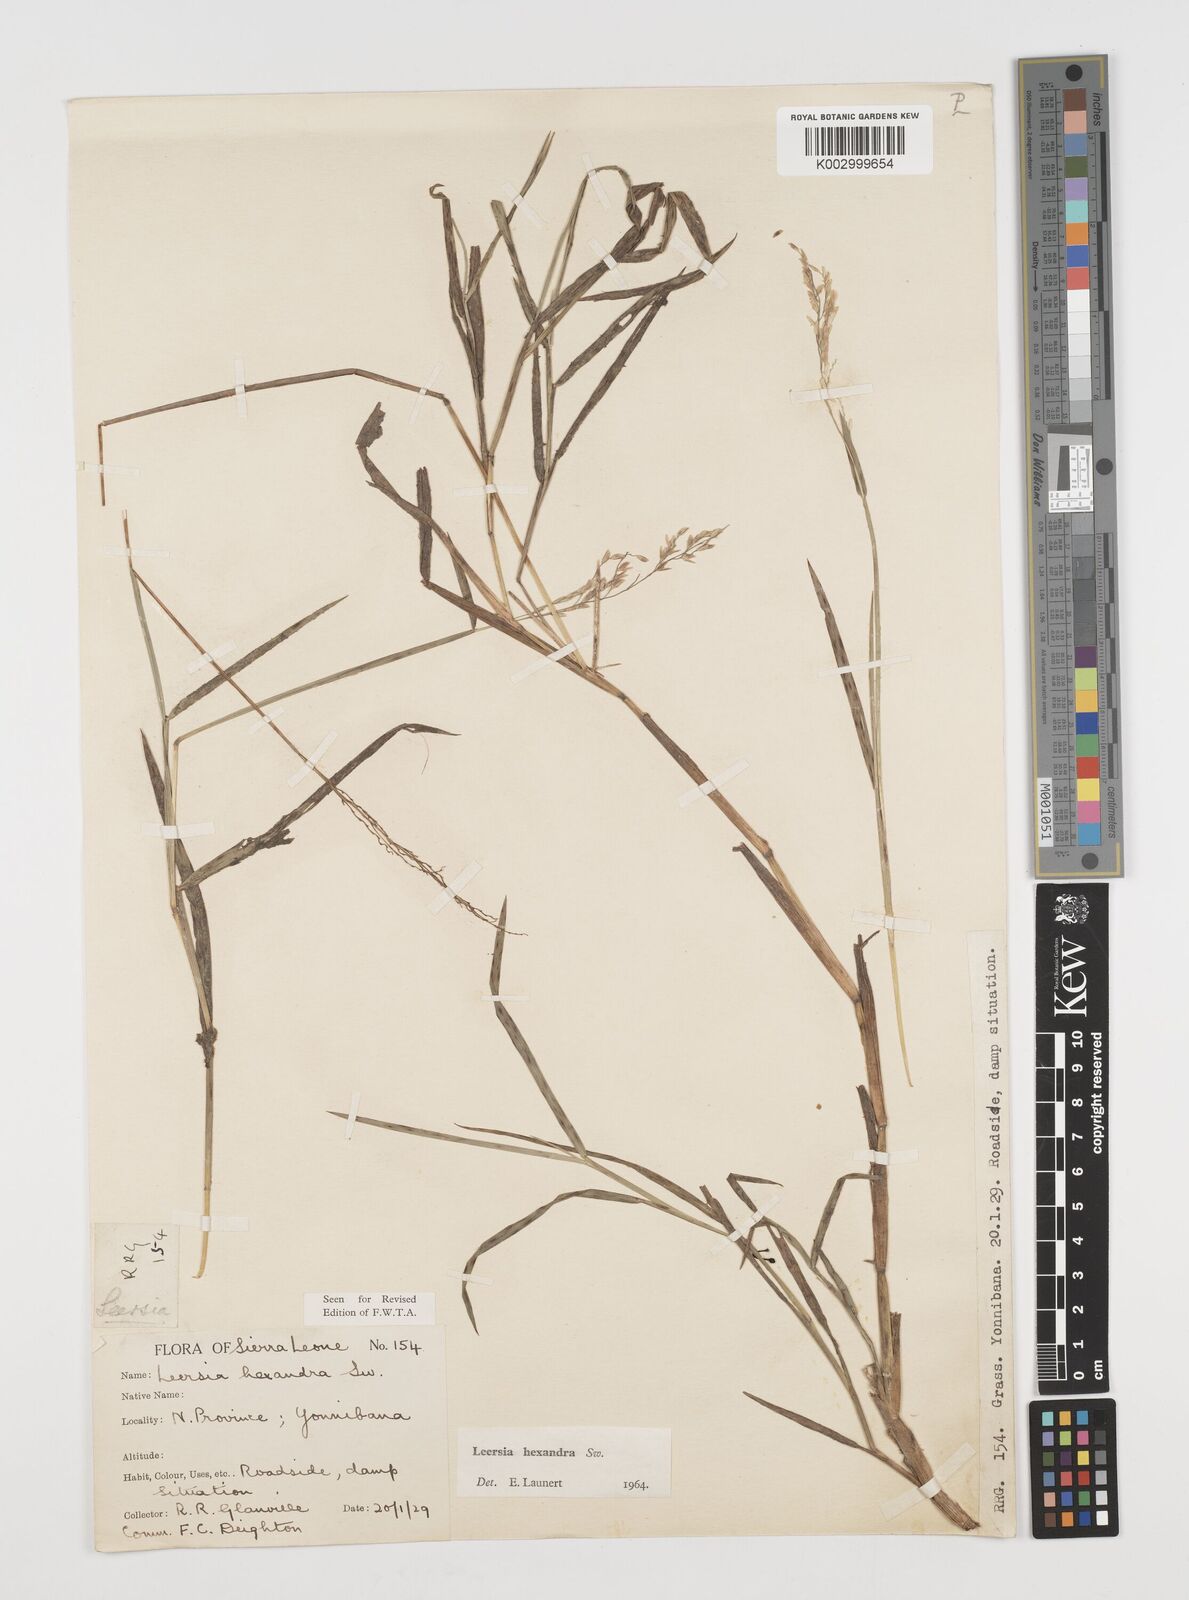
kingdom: Plantae
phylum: Tracheophyta
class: Liliopsida
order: Poales
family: Poaceae
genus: Leersia
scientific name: Leersia hexandra
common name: Southern cut grass
